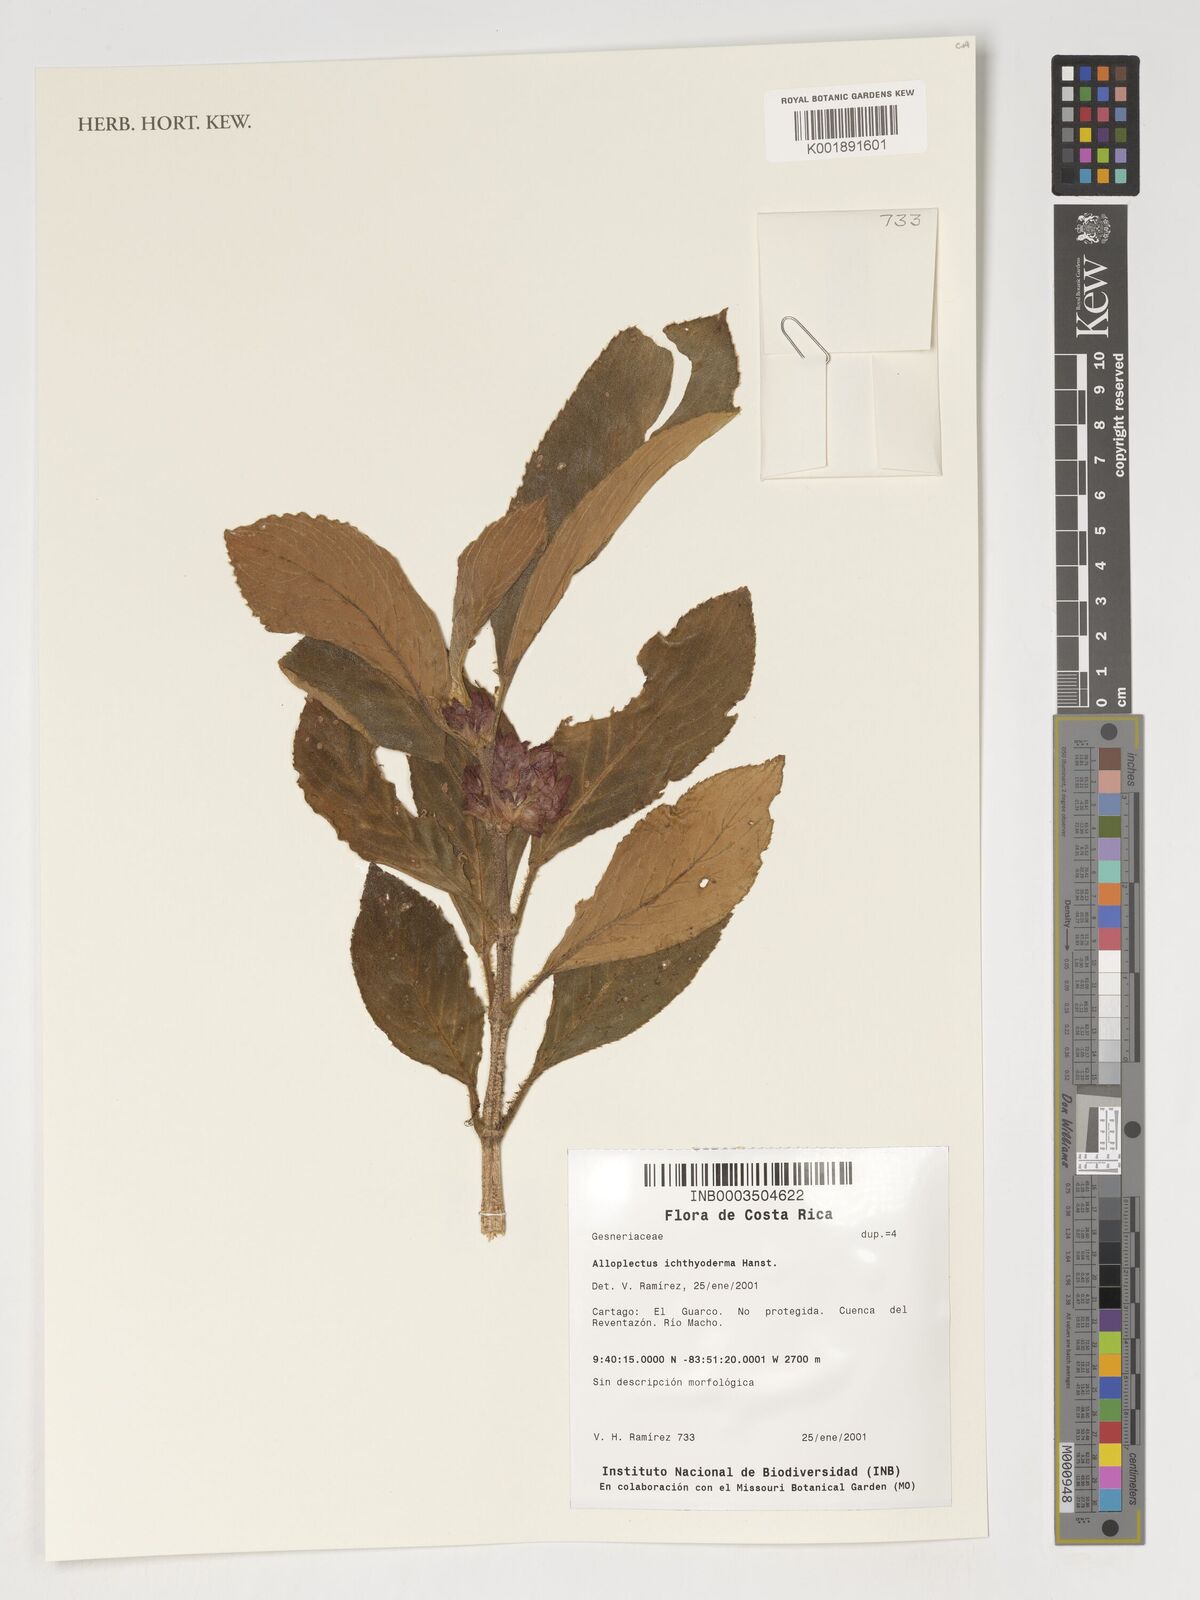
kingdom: Plantae
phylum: Tracheophyta
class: Magnoliopsida
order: Lamiales
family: Gesneriaceae
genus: Glossoloma
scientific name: Glossoloma ichthyoderma
